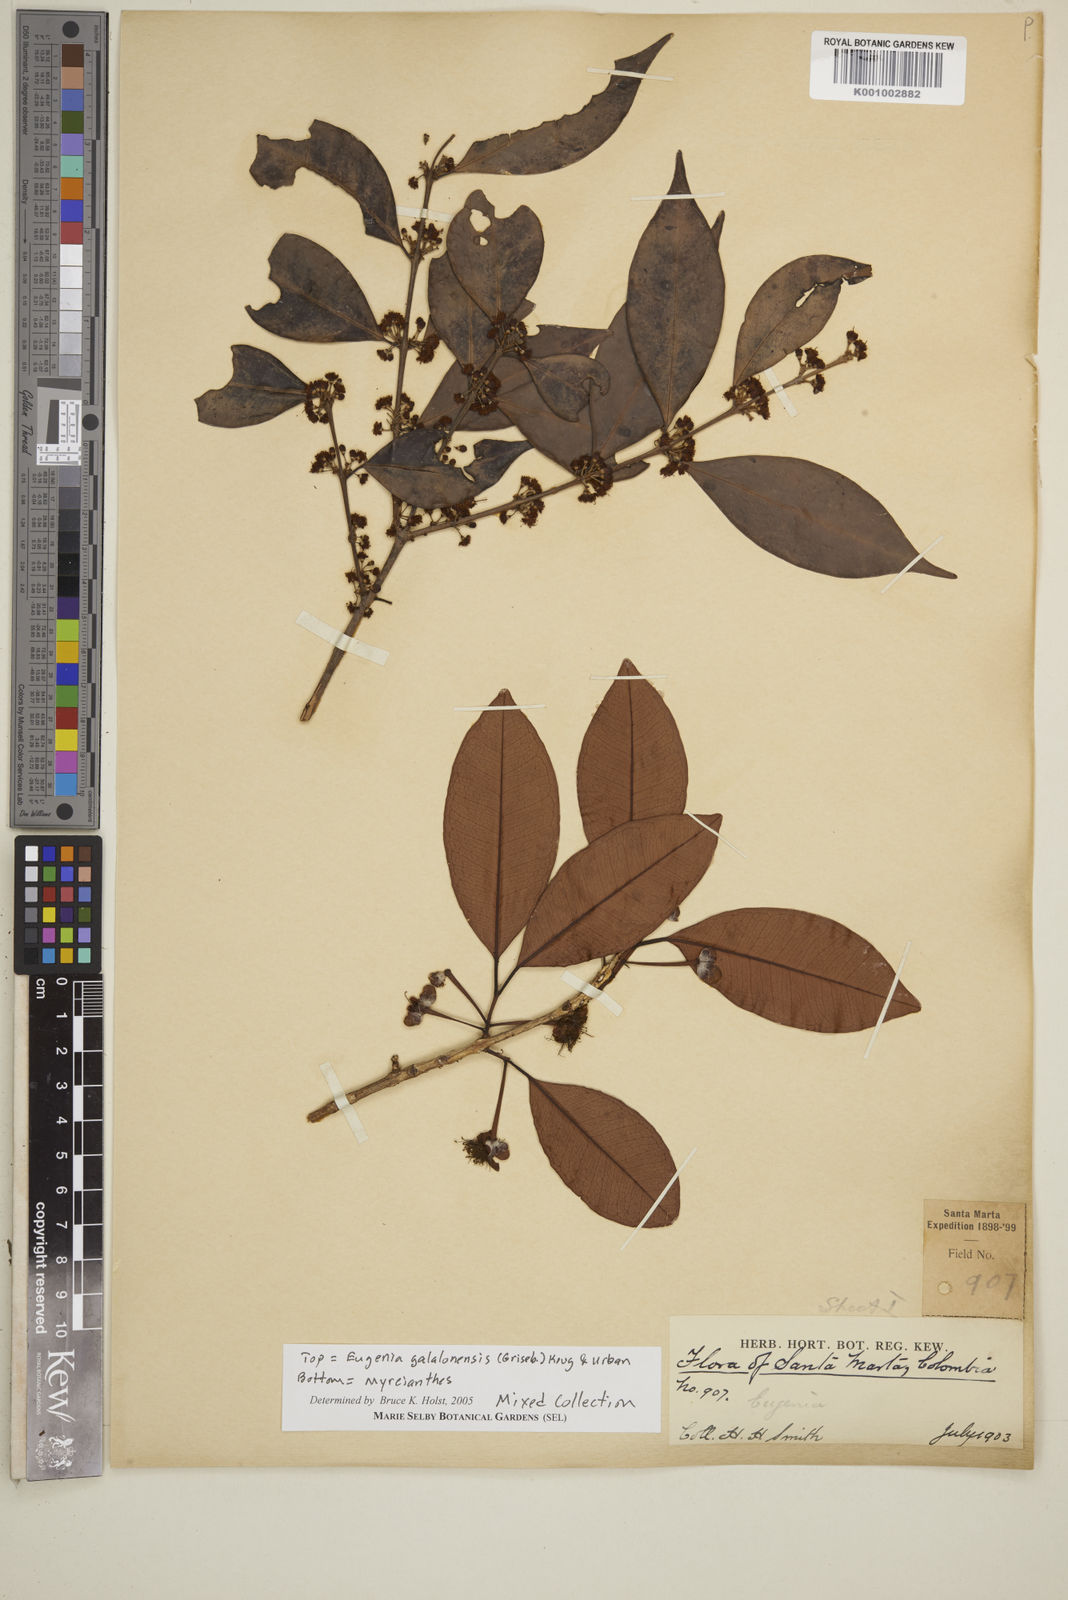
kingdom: Plantae
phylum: Tracheophyta
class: Magnoliopsida
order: Myrtales
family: Myrtaceae
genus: Eugenia
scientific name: Eugenia galalonensis
